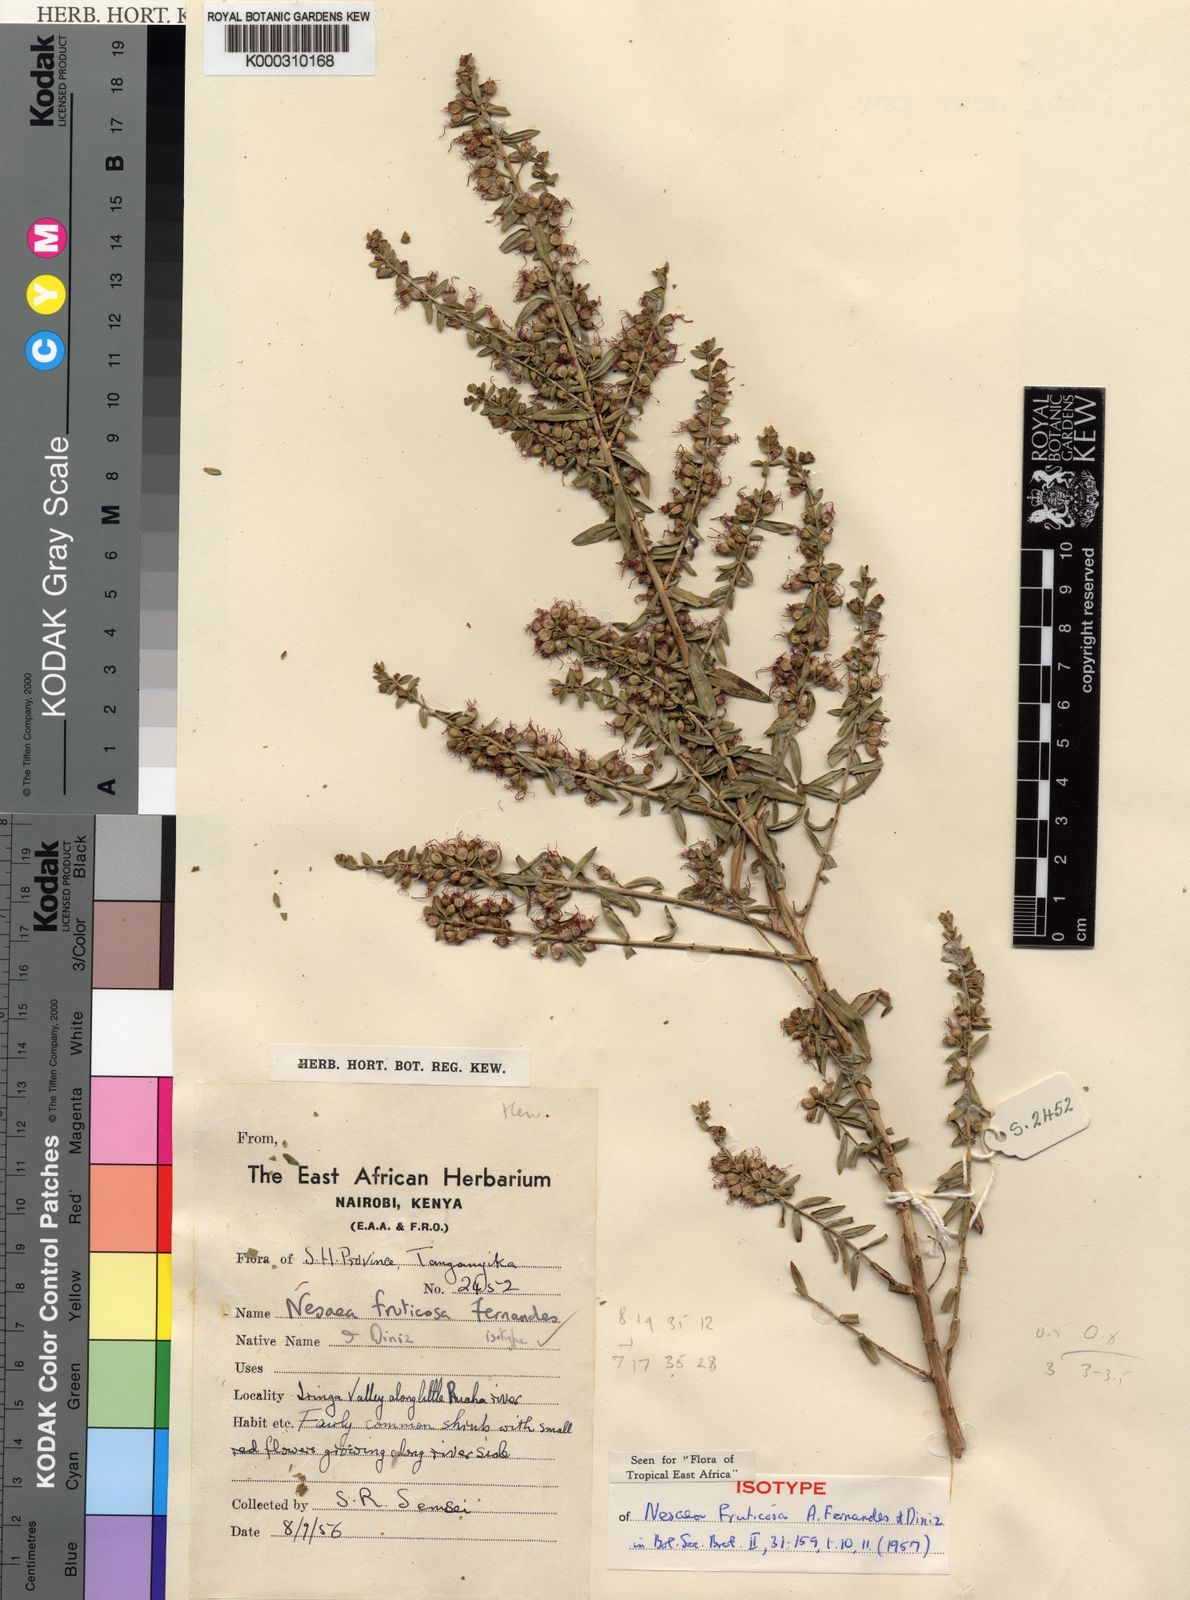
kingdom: Plantae
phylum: Tracheophyta
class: Magnoliopsida
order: Myrtales
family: Lythraceae
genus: Ammannia
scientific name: Ammannia fruticosa
